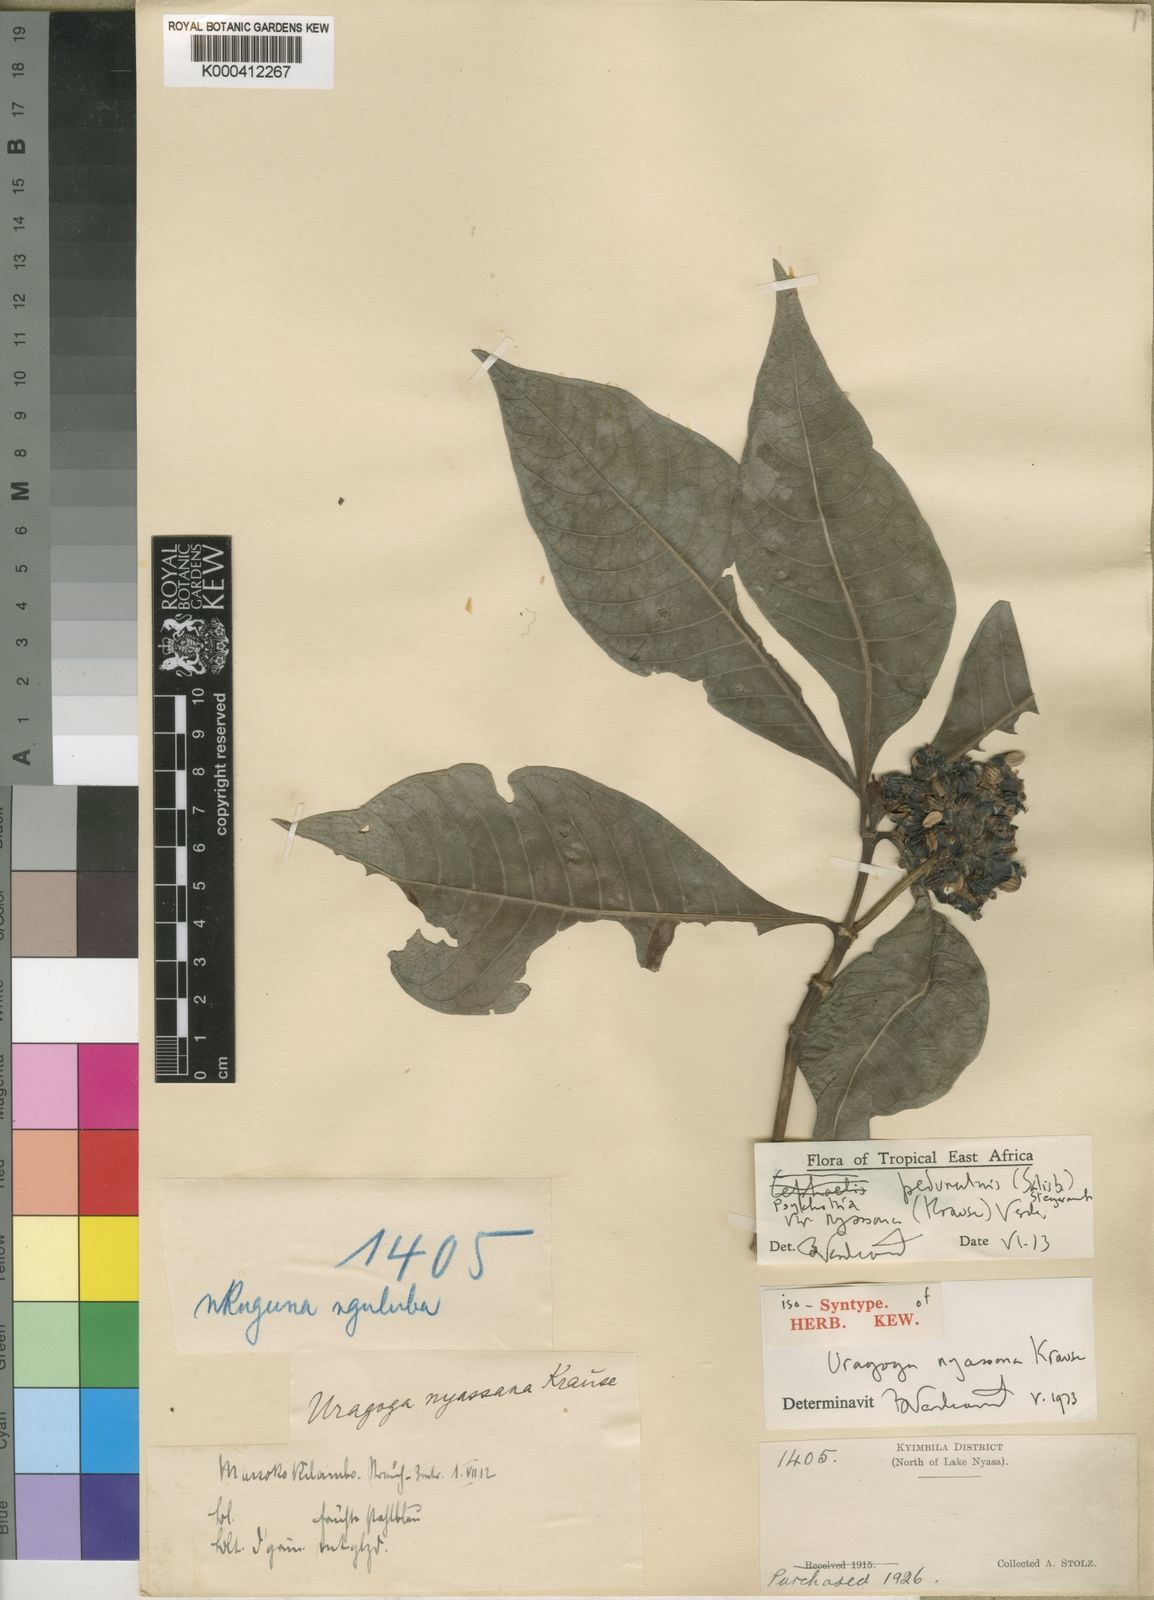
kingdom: Plantae
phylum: Tracheophyta
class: Magnoliopsida
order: Gentianales
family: Rubiaceae
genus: Psychotria
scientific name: Psychotria peduncularis
